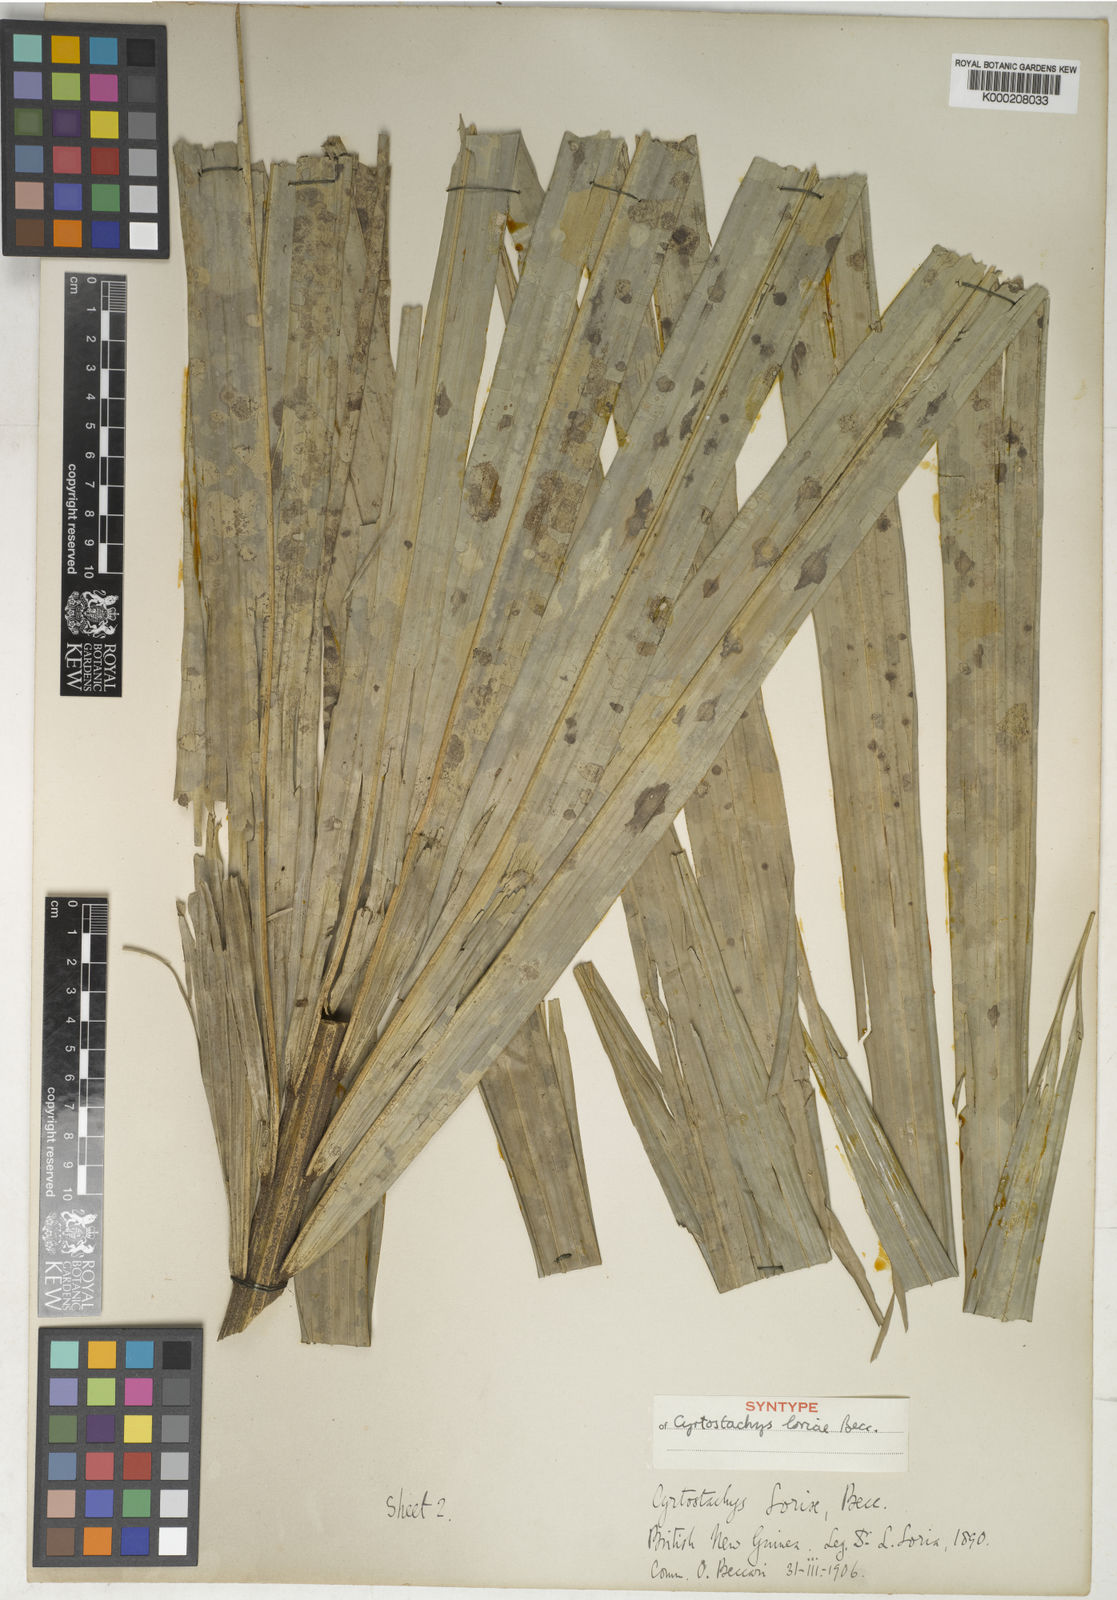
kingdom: Plantae
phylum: Tracheophyta
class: Liliopsida
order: Arecales
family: Arecaceae
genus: Cyrtostachys
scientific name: Cyrtostachys loriae
